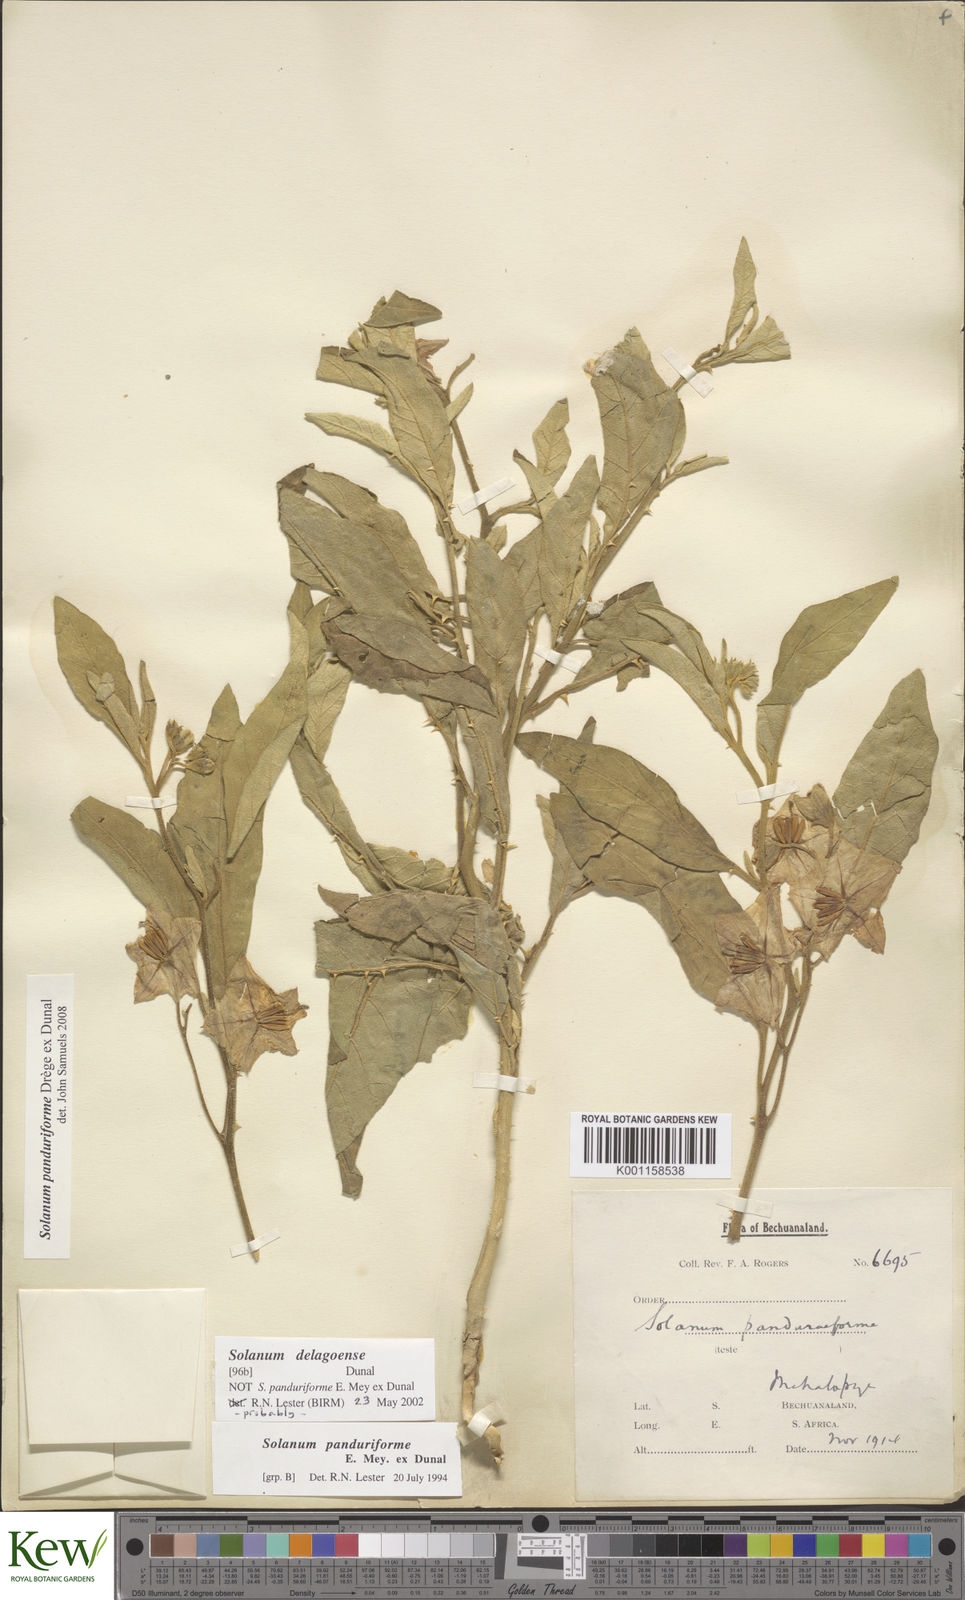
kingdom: Plantae
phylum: Tracheophyta
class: Magnoliopsida
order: Solanales
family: Solanaceae
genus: Solanum
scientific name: Solanum campylacanthum
